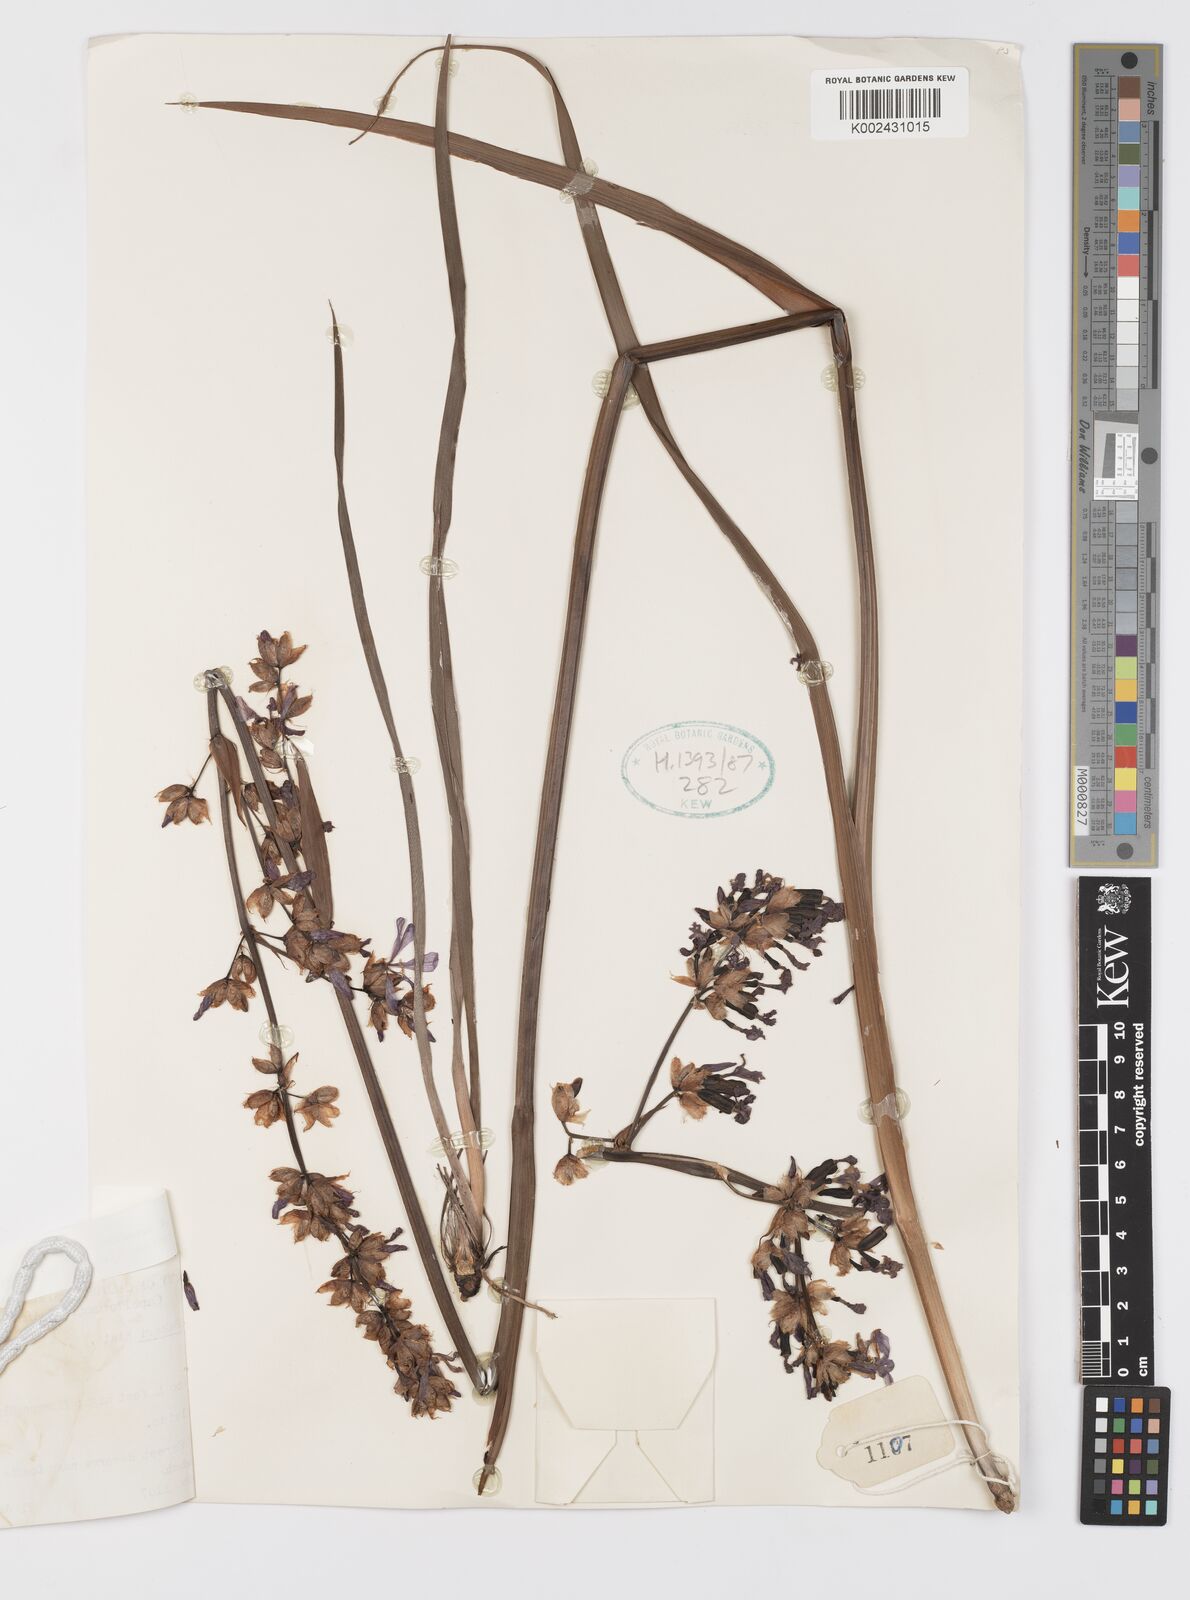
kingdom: Plantae
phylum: Tracheophyta
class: Liliopsida
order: Asparagales
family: Iridaceae
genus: Aristea
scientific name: Aristea bakeri
